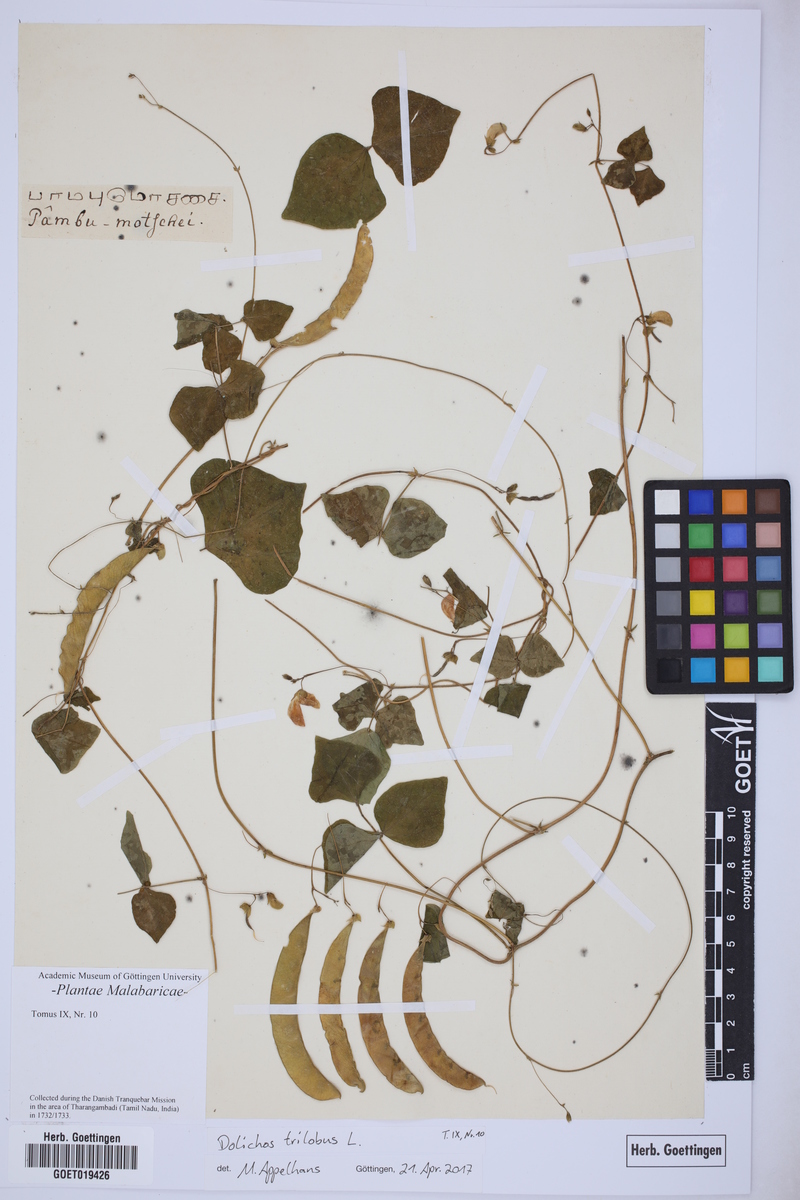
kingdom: Plantae
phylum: Tracheophyta
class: Magnoliopsida
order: Fabales
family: Fabaceae
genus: Dolichos
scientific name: Dolichos trilobus
